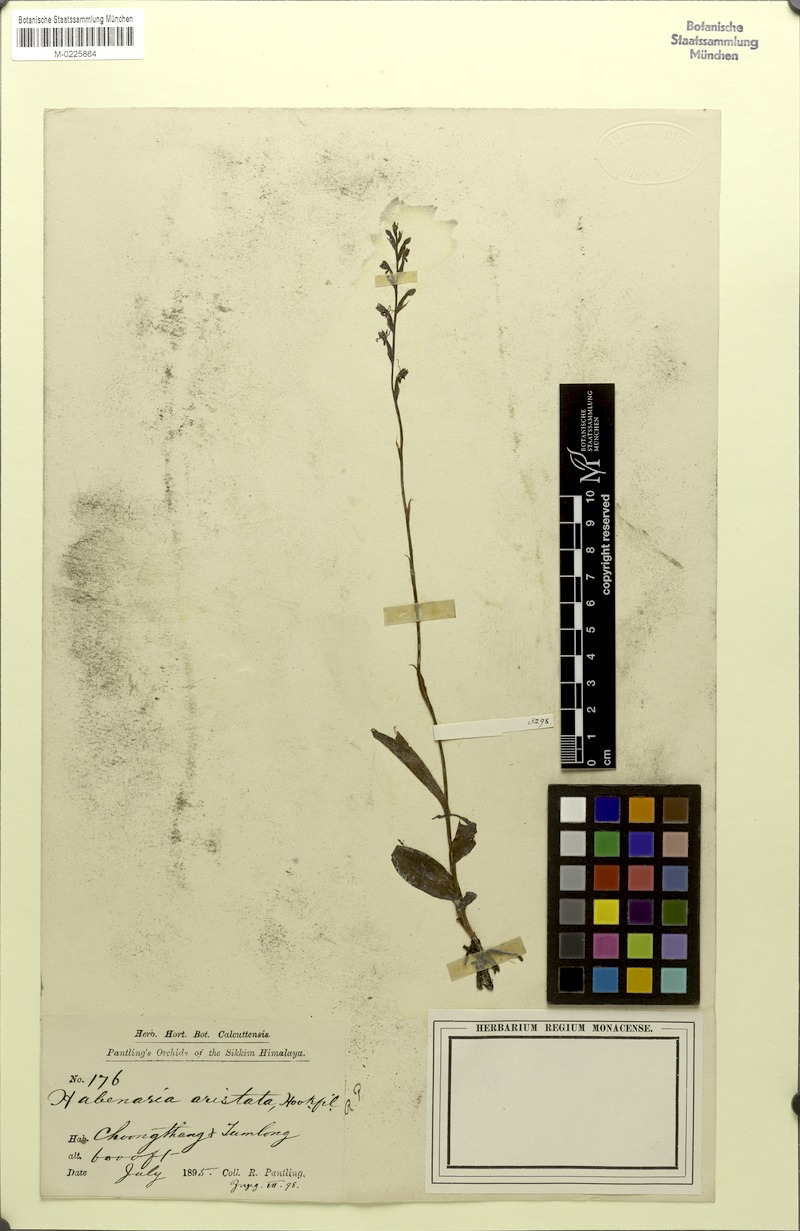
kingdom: Plantae
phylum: Tracheophyta
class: Liliopsida
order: Asparagales
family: Orchidaceae
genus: Peristylus
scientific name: Peristylus aristatus
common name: The spiked peristylus
